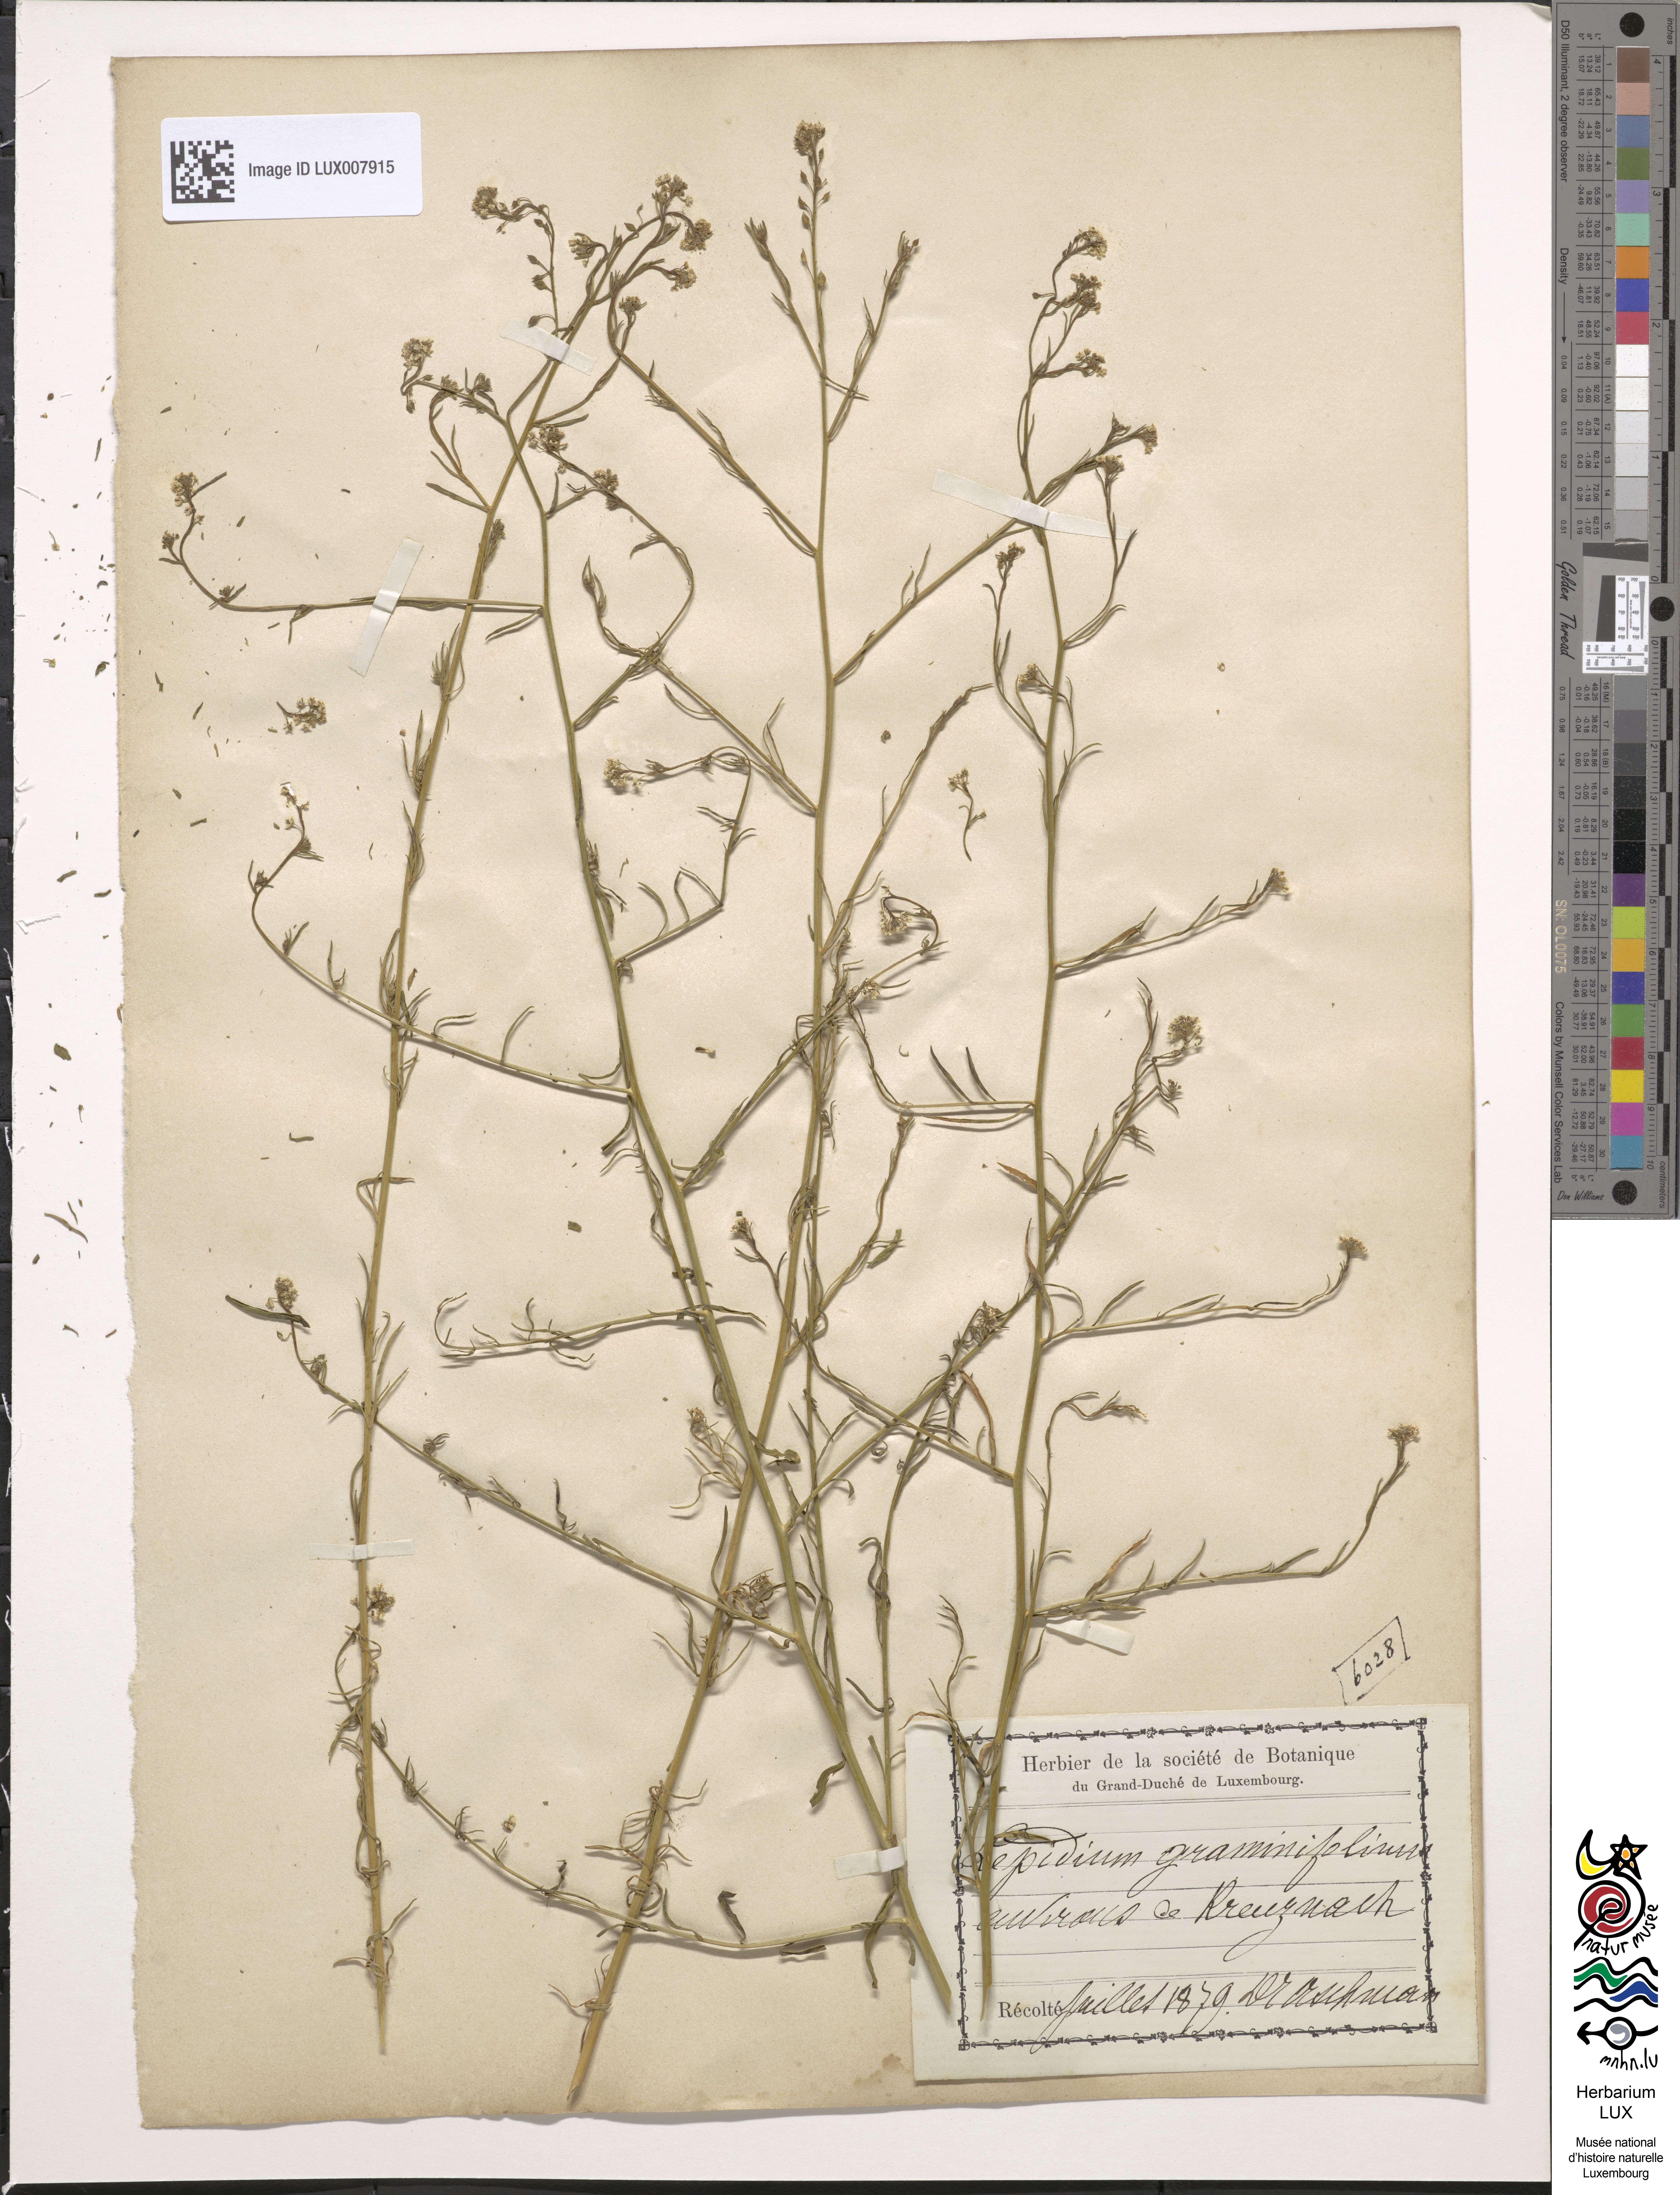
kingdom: Plantae
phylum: Tracheophyta
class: Magnoliopsida
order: Brassicales
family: Brassicaceae
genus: Lepidium
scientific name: Lepidium graminifolium
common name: Tall pepperwort
